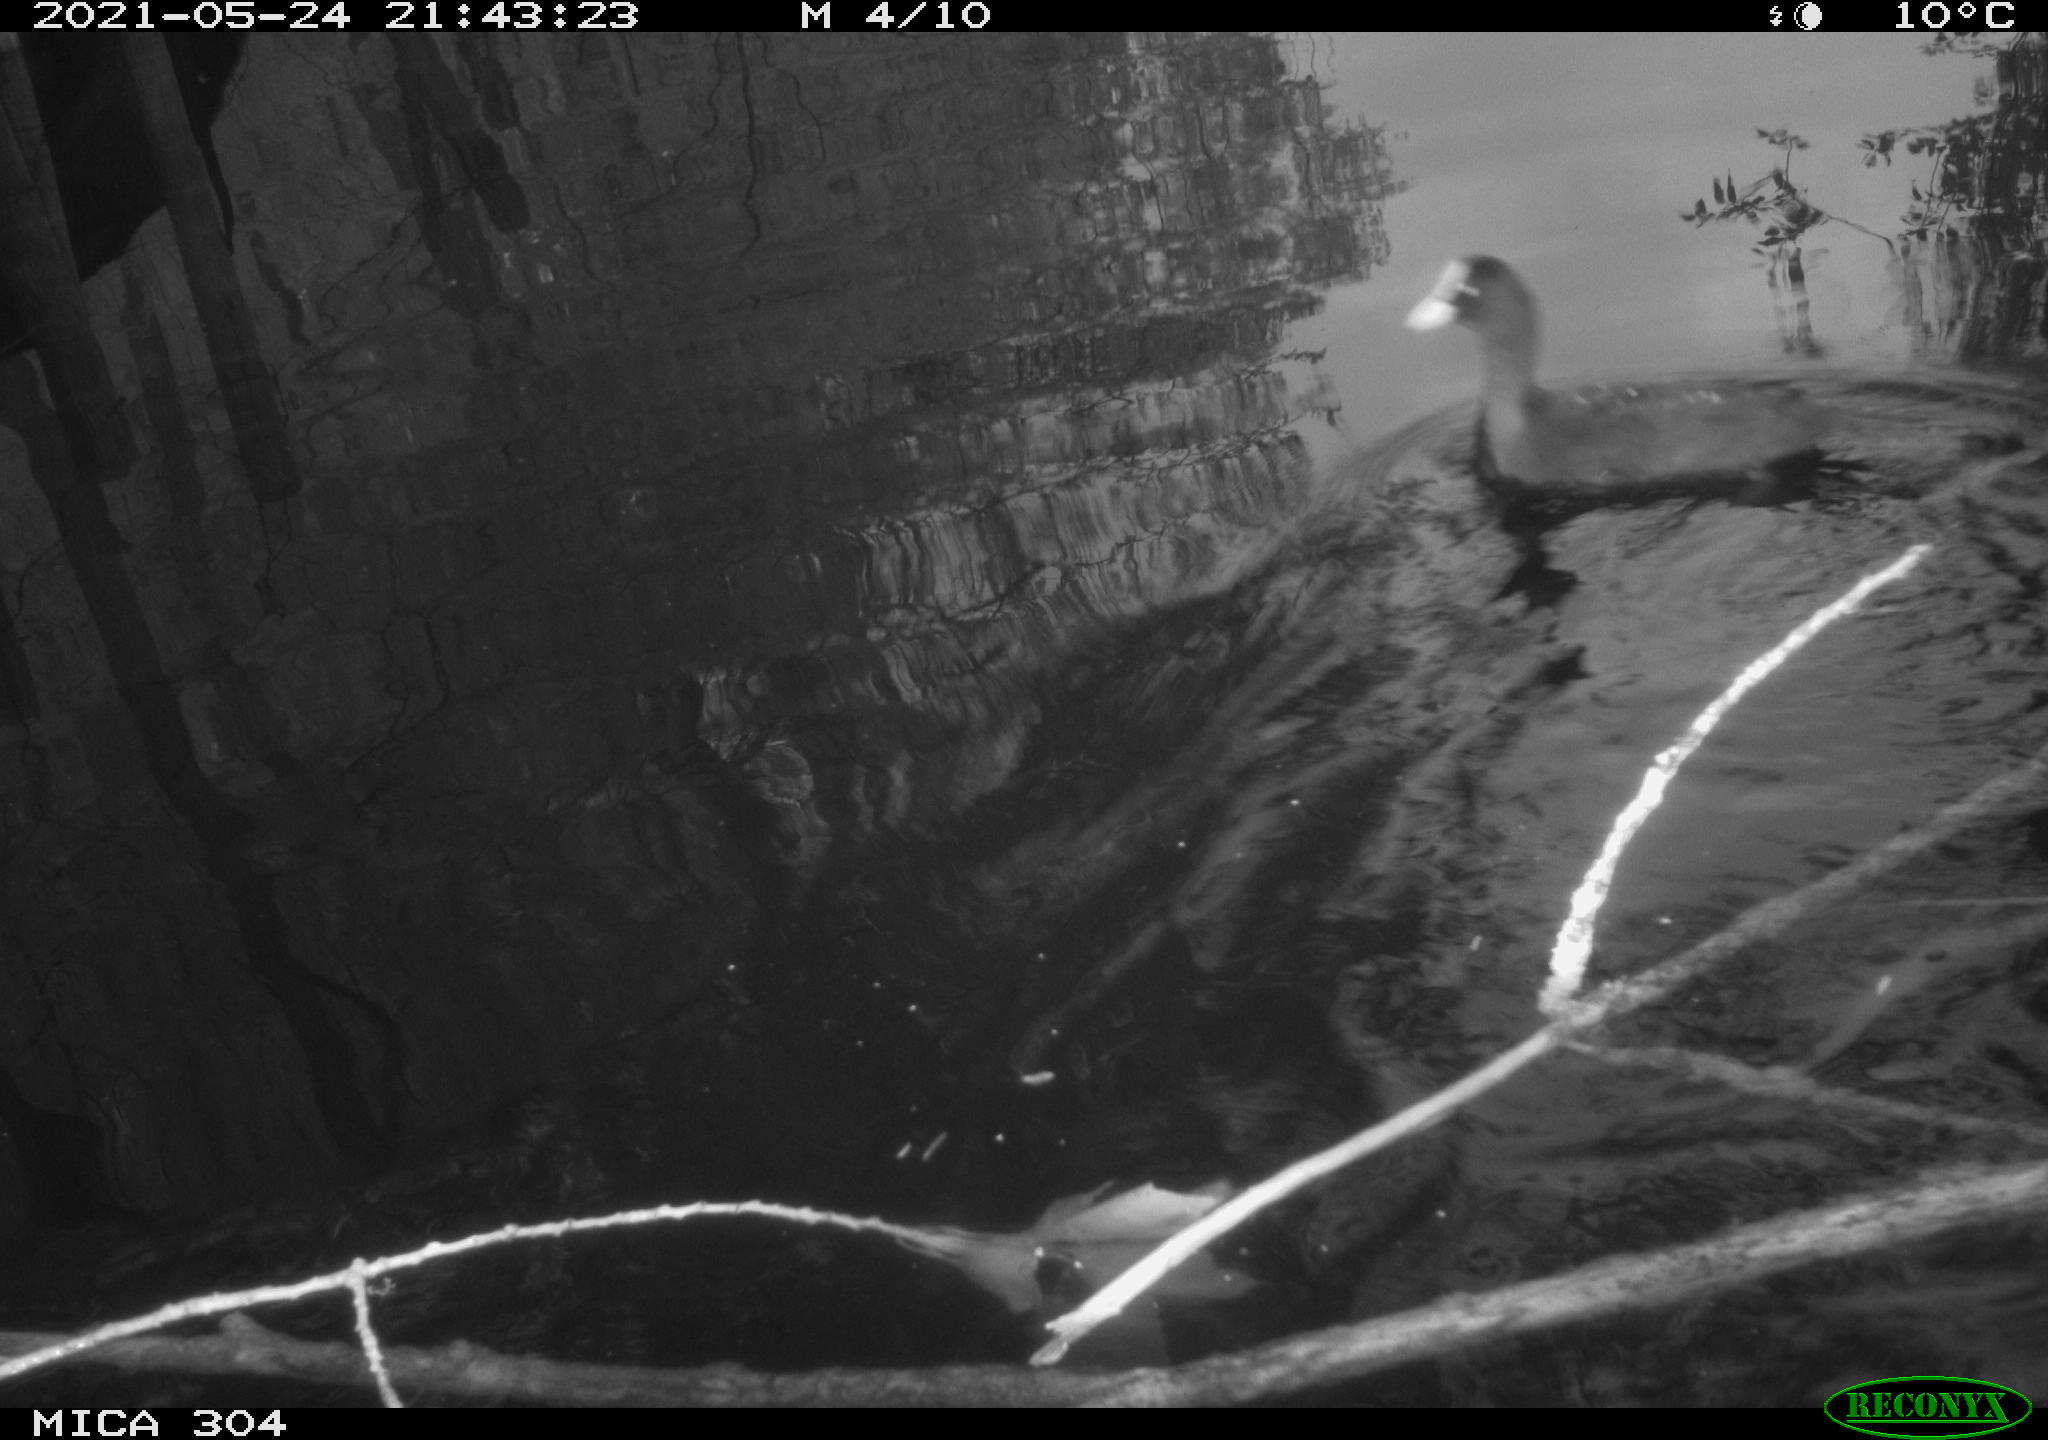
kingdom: Animalia
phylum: Chordata
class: Aves
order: Gruiformes
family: Rallidae
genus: Gallinula
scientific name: Gallinula chloropus
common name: Common moorhen
